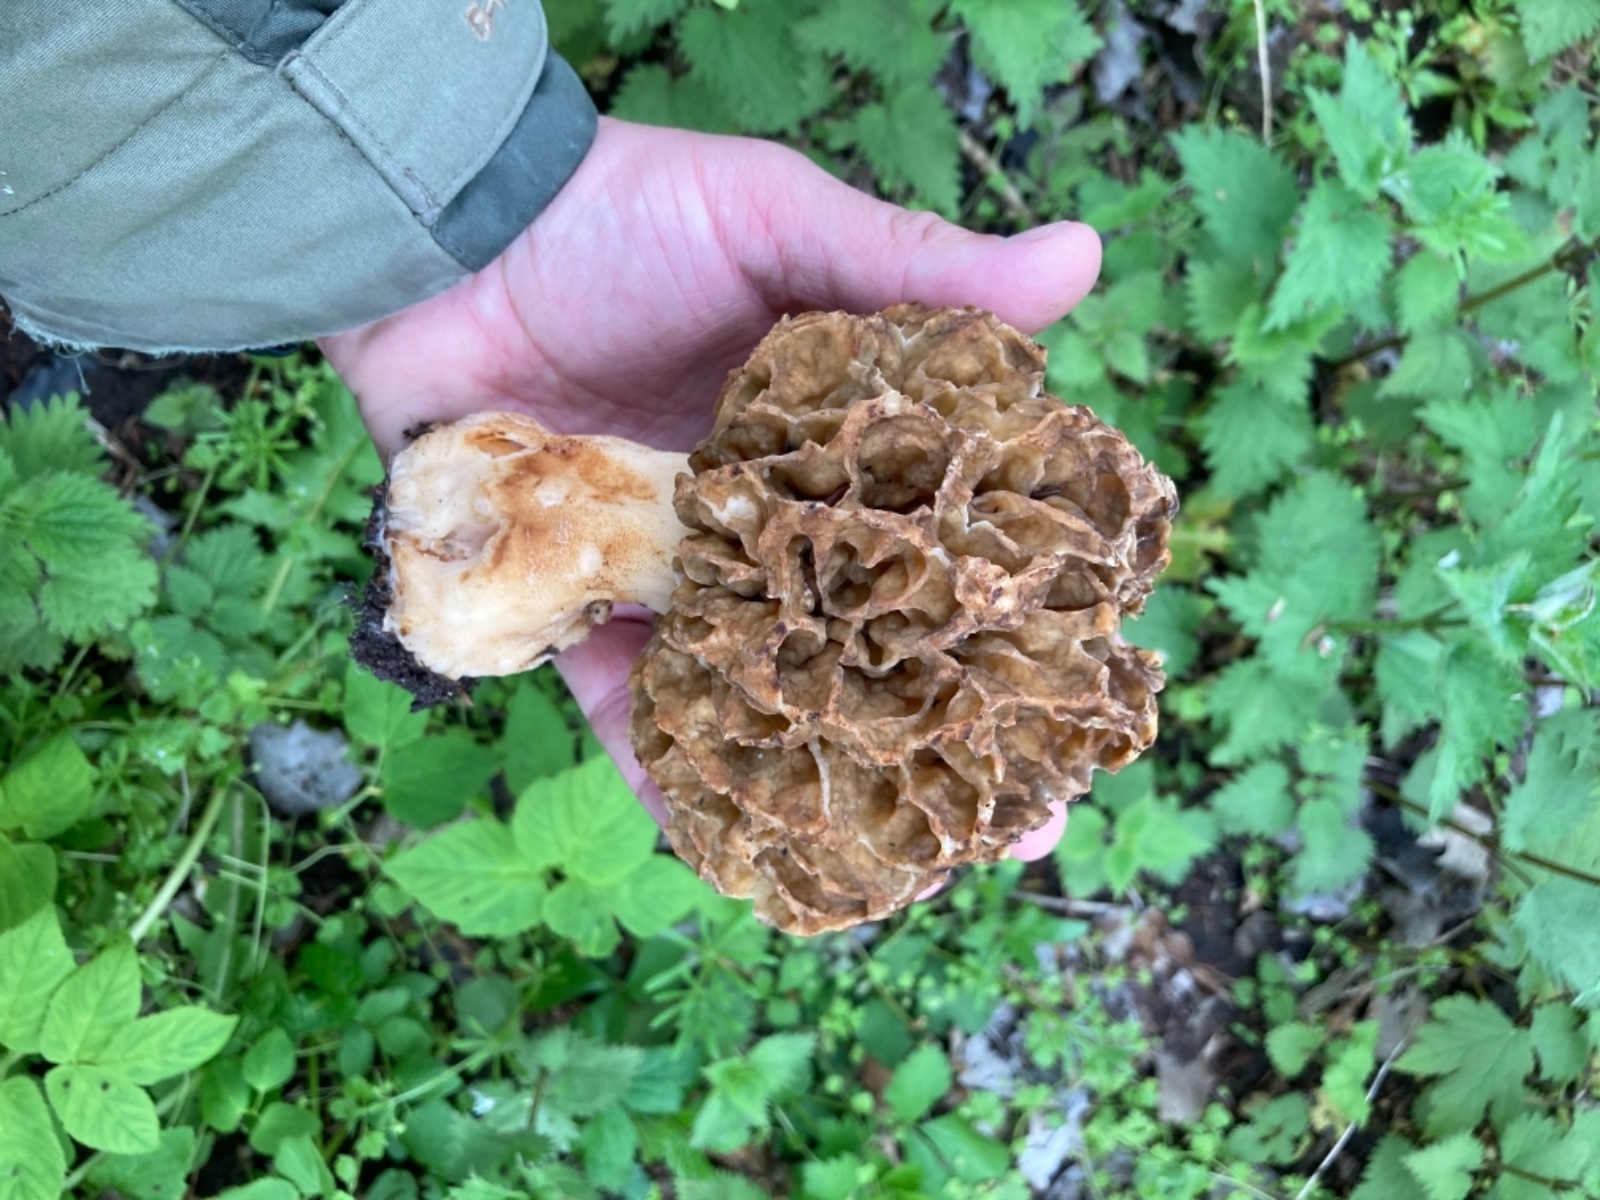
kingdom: Fungi
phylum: Ascomycota
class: Pezizomycetes
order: Pezizales
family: Morchellaceae
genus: Morchella
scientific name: Morchella esculenta
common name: spiselig morkel
